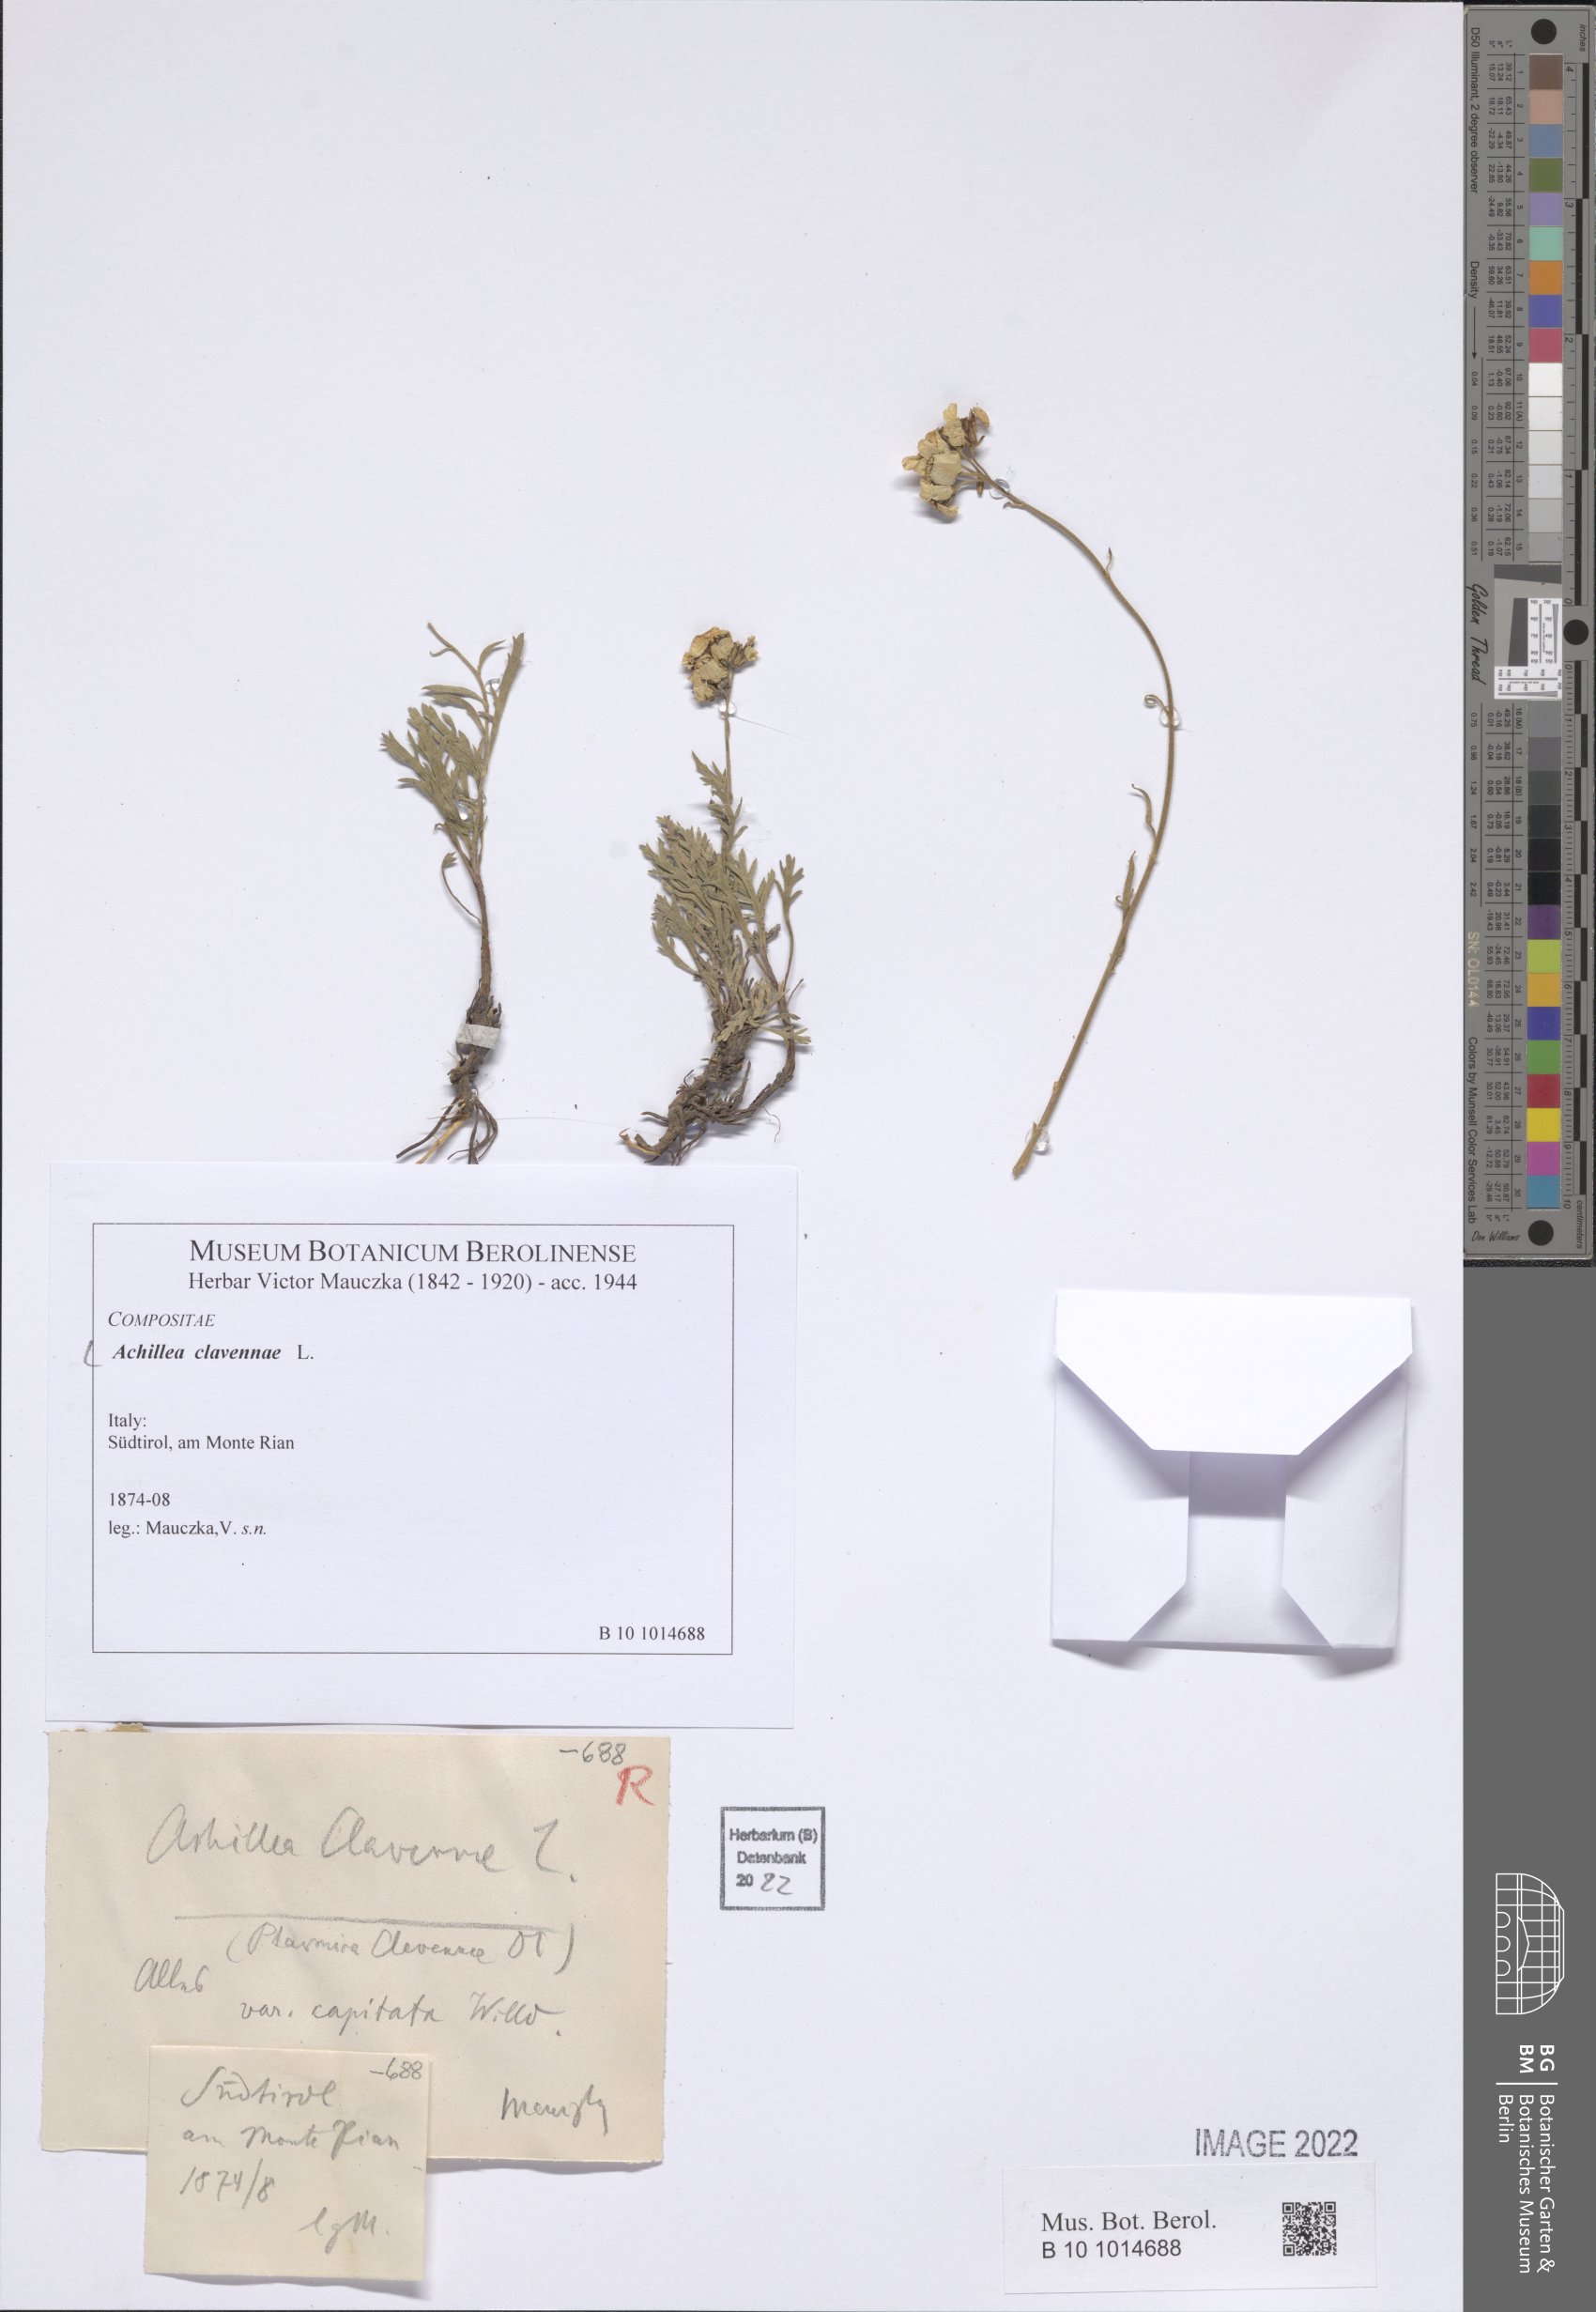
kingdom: Plantae
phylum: Tracheophyta
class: Magnoliopsida
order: Asterales
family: Asteraceae
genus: Achillea
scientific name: Achillea clavennae
